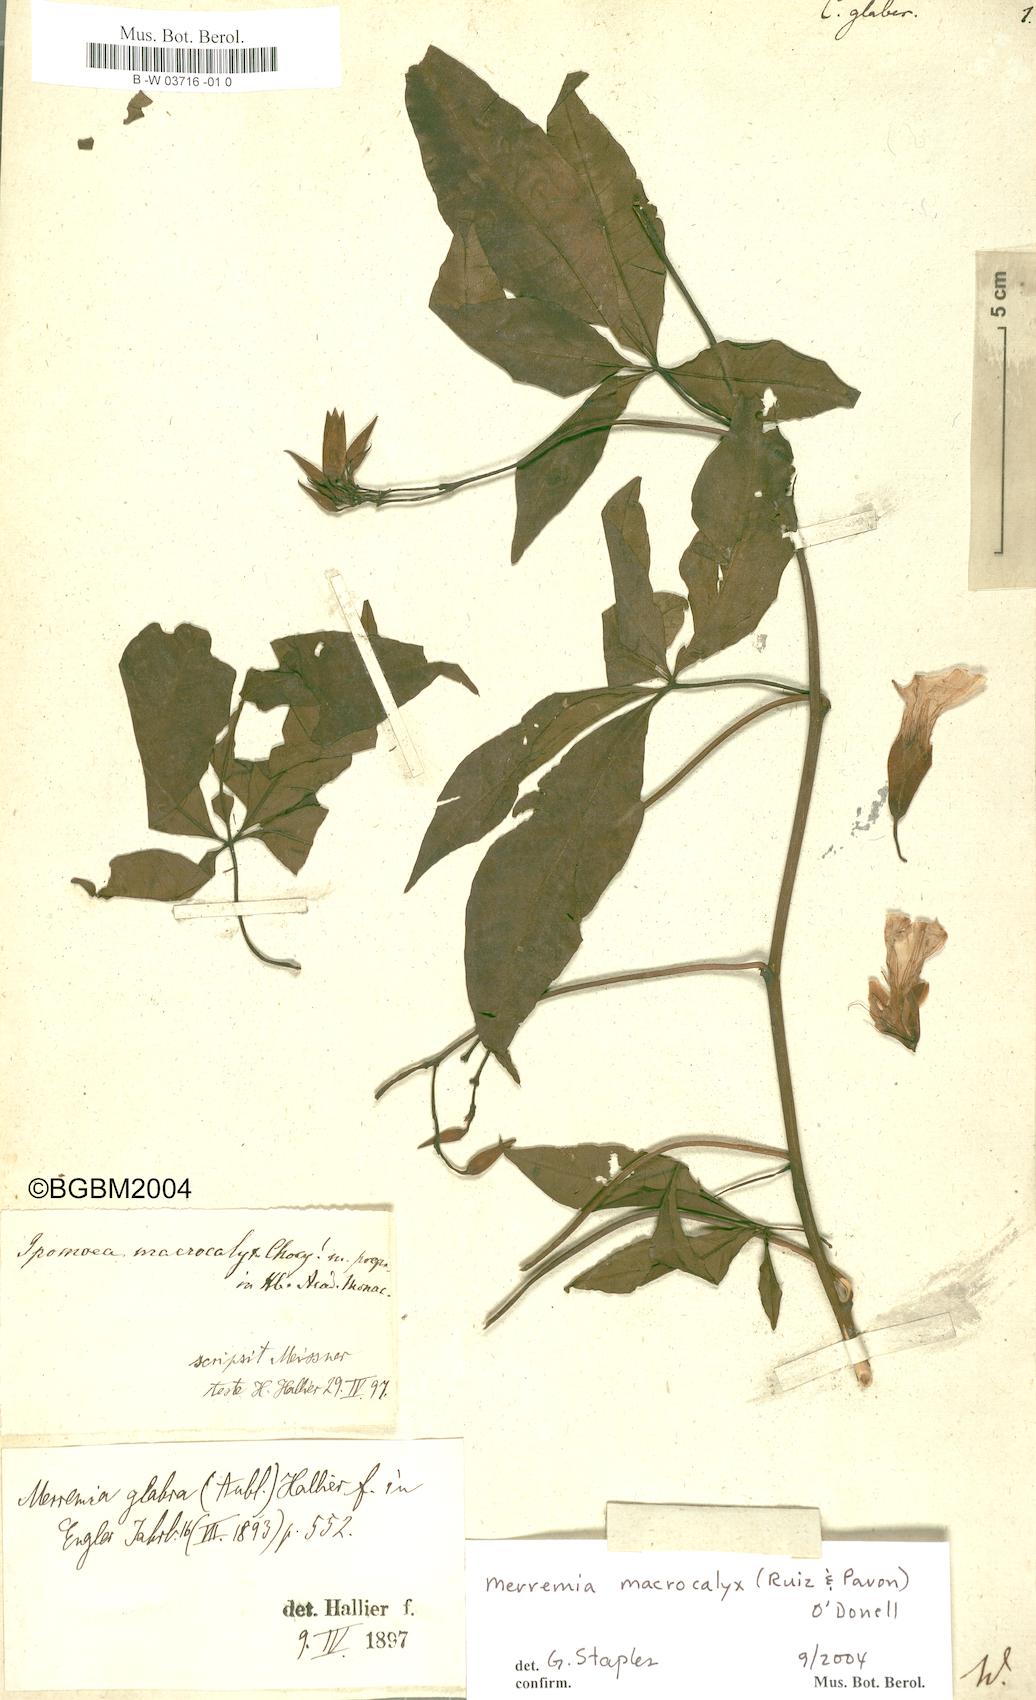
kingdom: Plantae
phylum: Tracheophyta
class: Magnoliopsida
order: Solanales
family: Convolvulaceae
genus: Distimake
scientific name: Distimake macrocalyx
